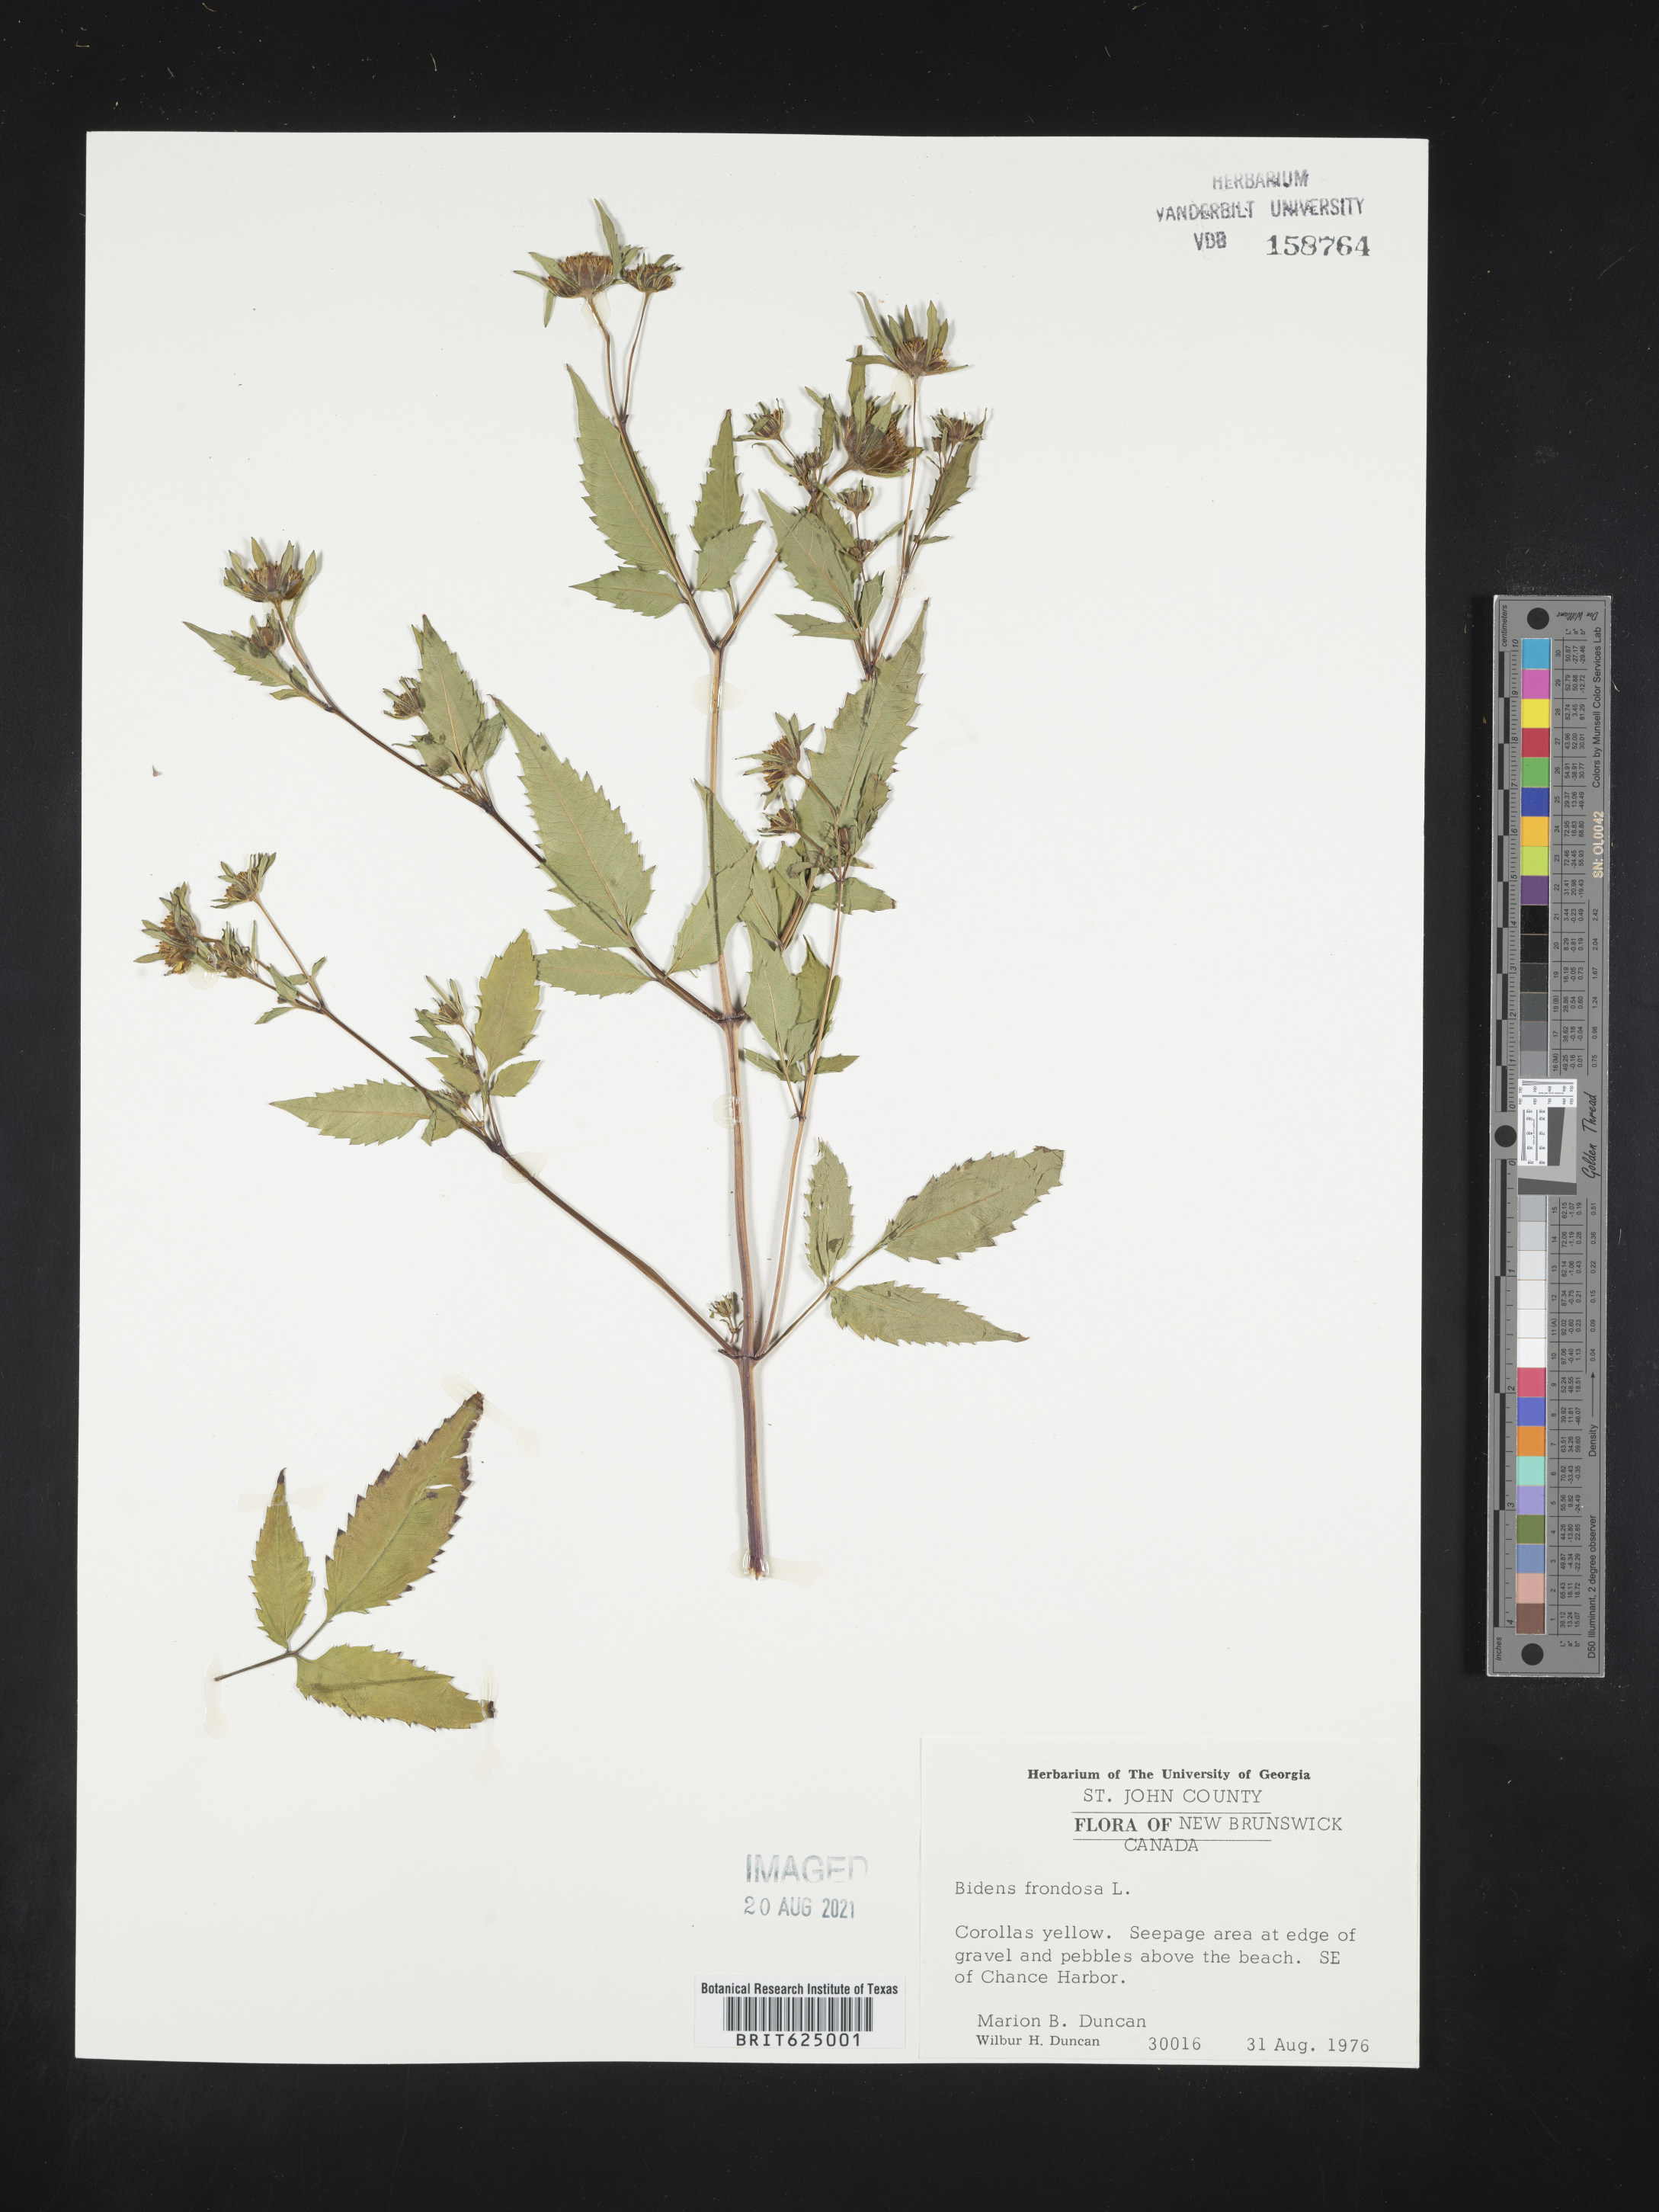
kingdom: Plantae
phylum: Tracheophyta
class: Magnoliopsida
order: Asterales
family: Asteraceae
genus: Bidens
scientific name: Bidens frondosa
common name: Beggarticks
